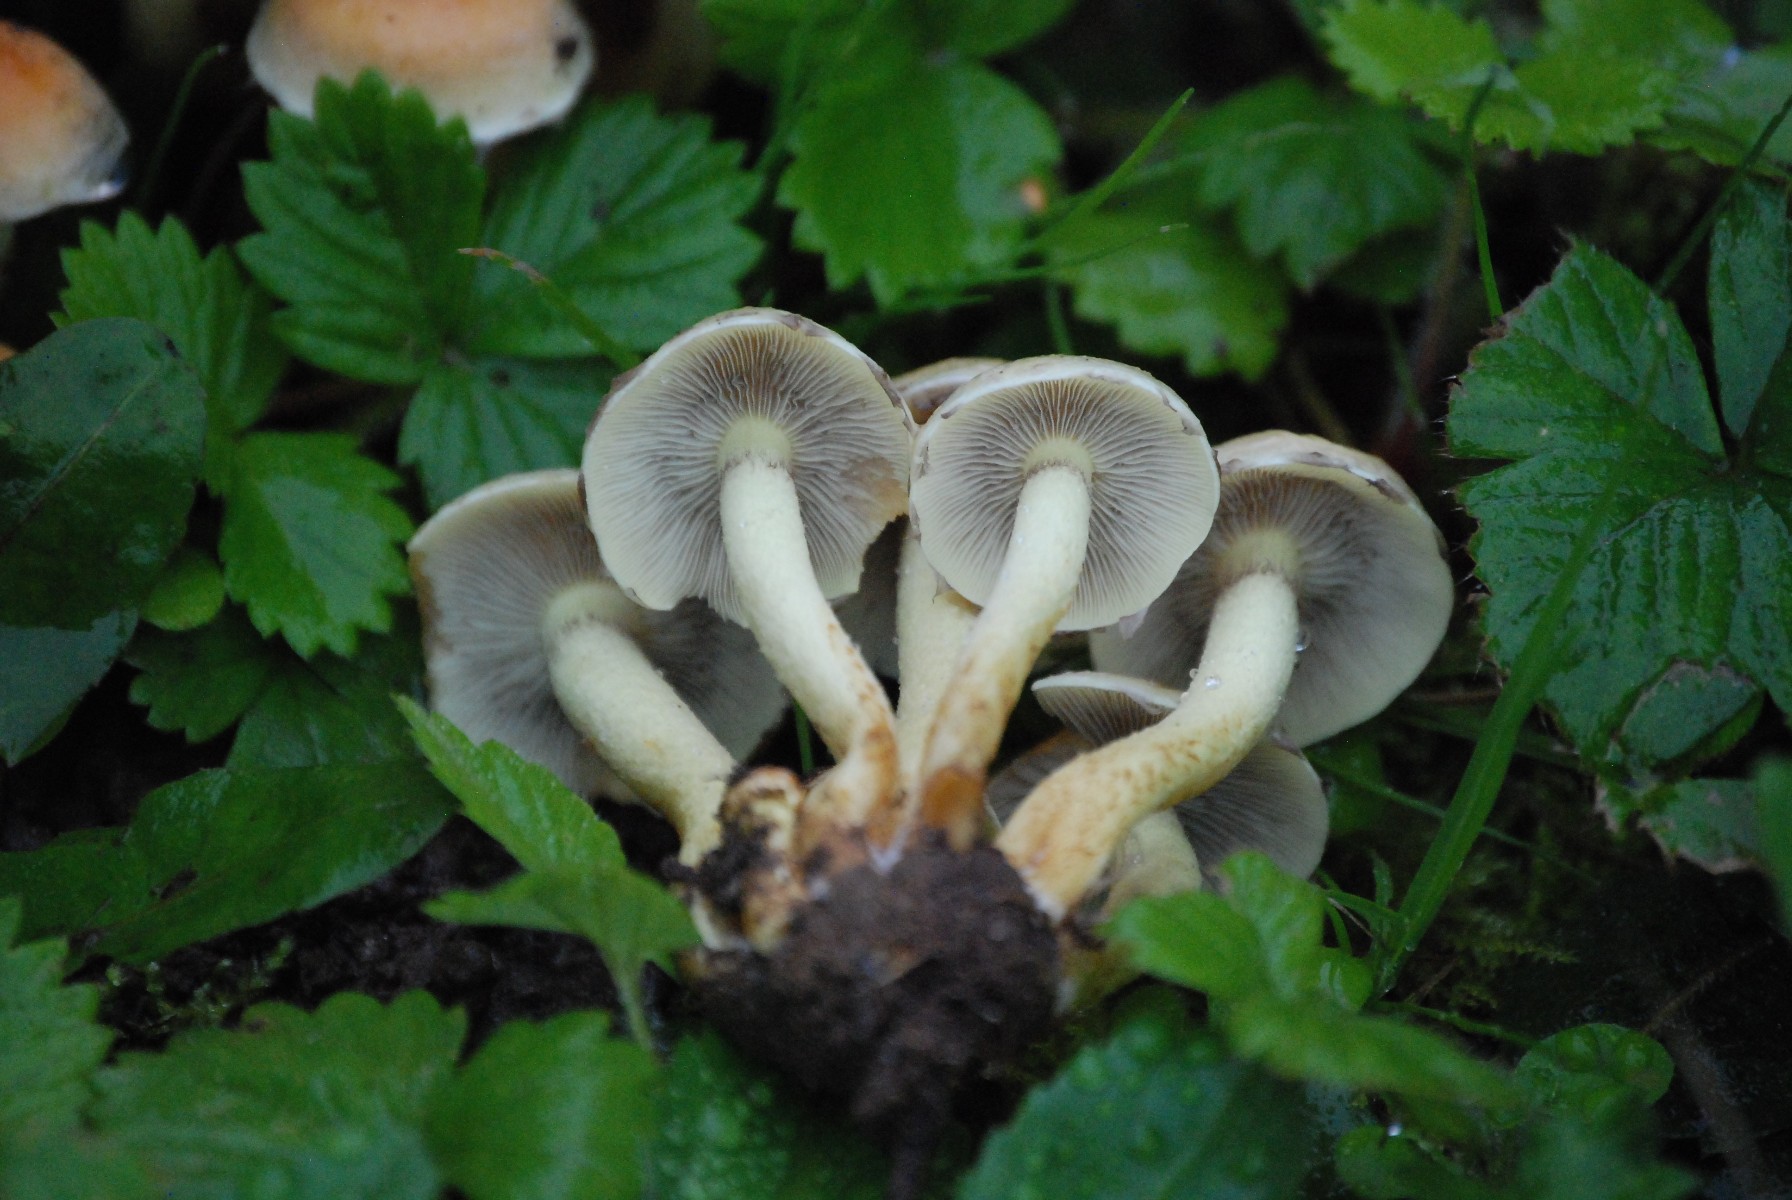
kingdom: Fungi
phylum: Basidiomycota
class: Agaricomycetes
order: Agaricales
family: Strophariaceae
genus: Hypholoma
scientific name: Hypholoma fasciculare
